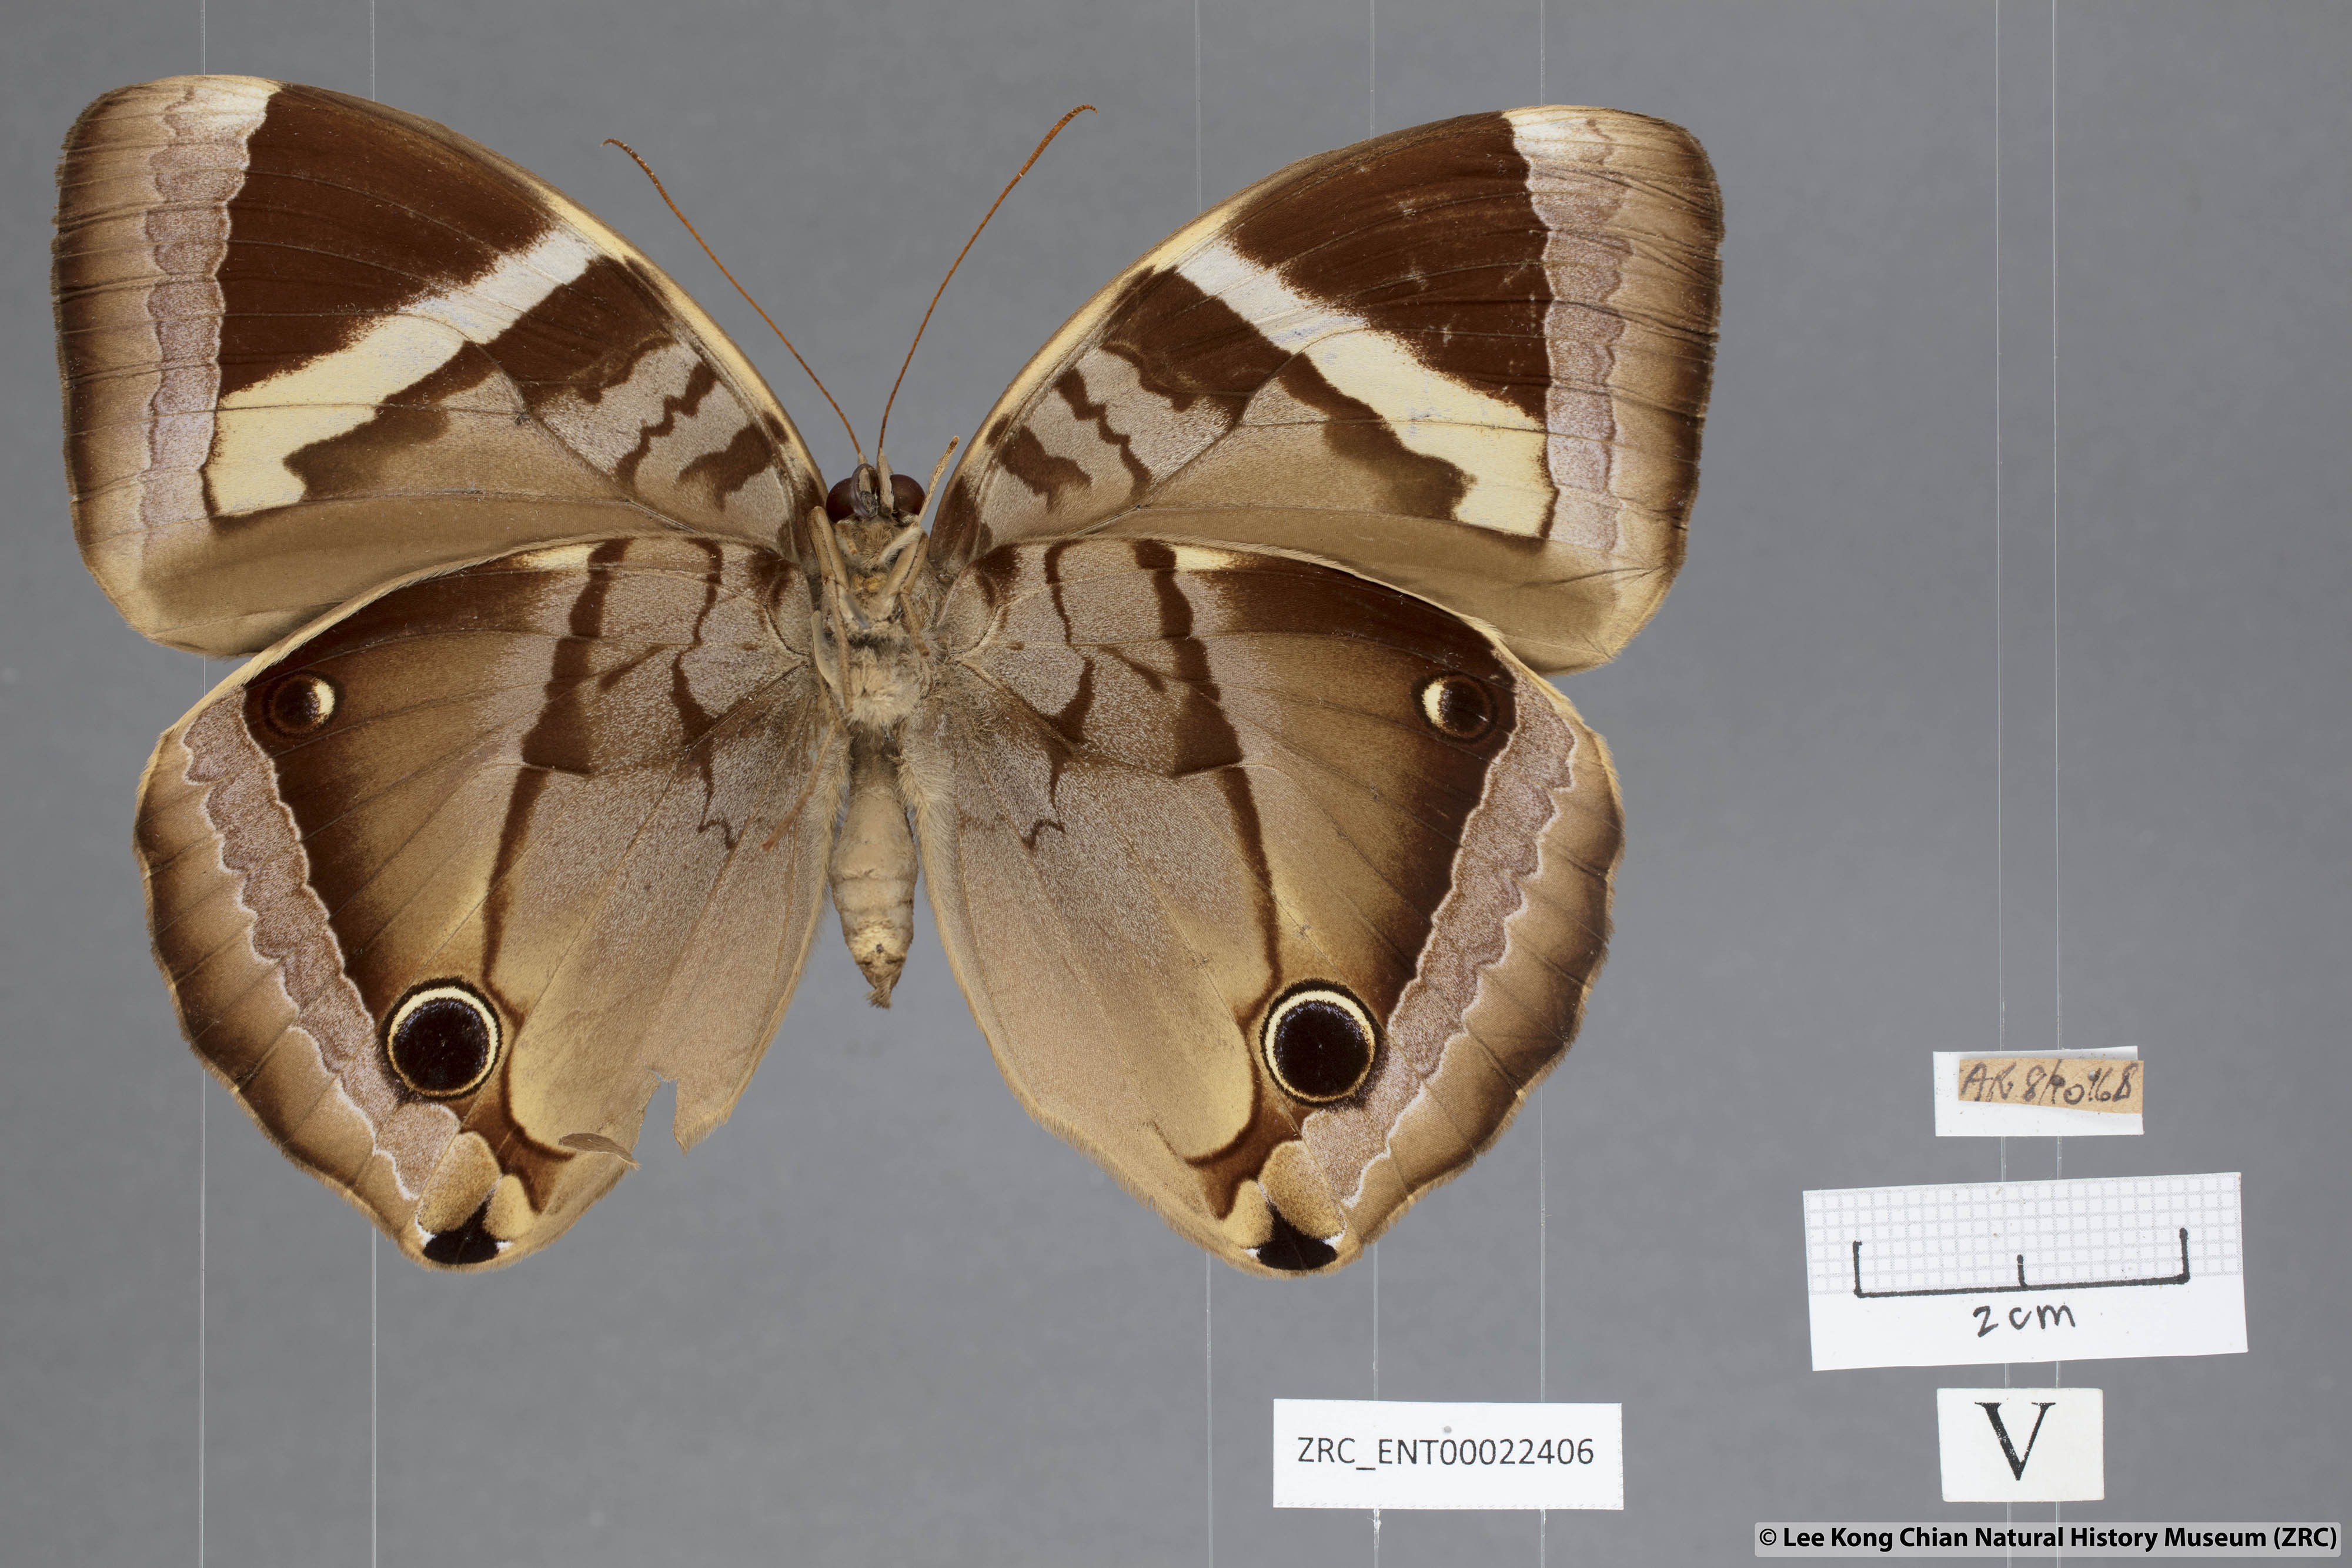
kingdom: Animalia
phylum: Arthropoda
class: Insecta
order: Lepidoptera
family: Nymphalidae
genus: Thaumantis
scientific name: Thaumantis odana
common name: Malayan jungle glory
